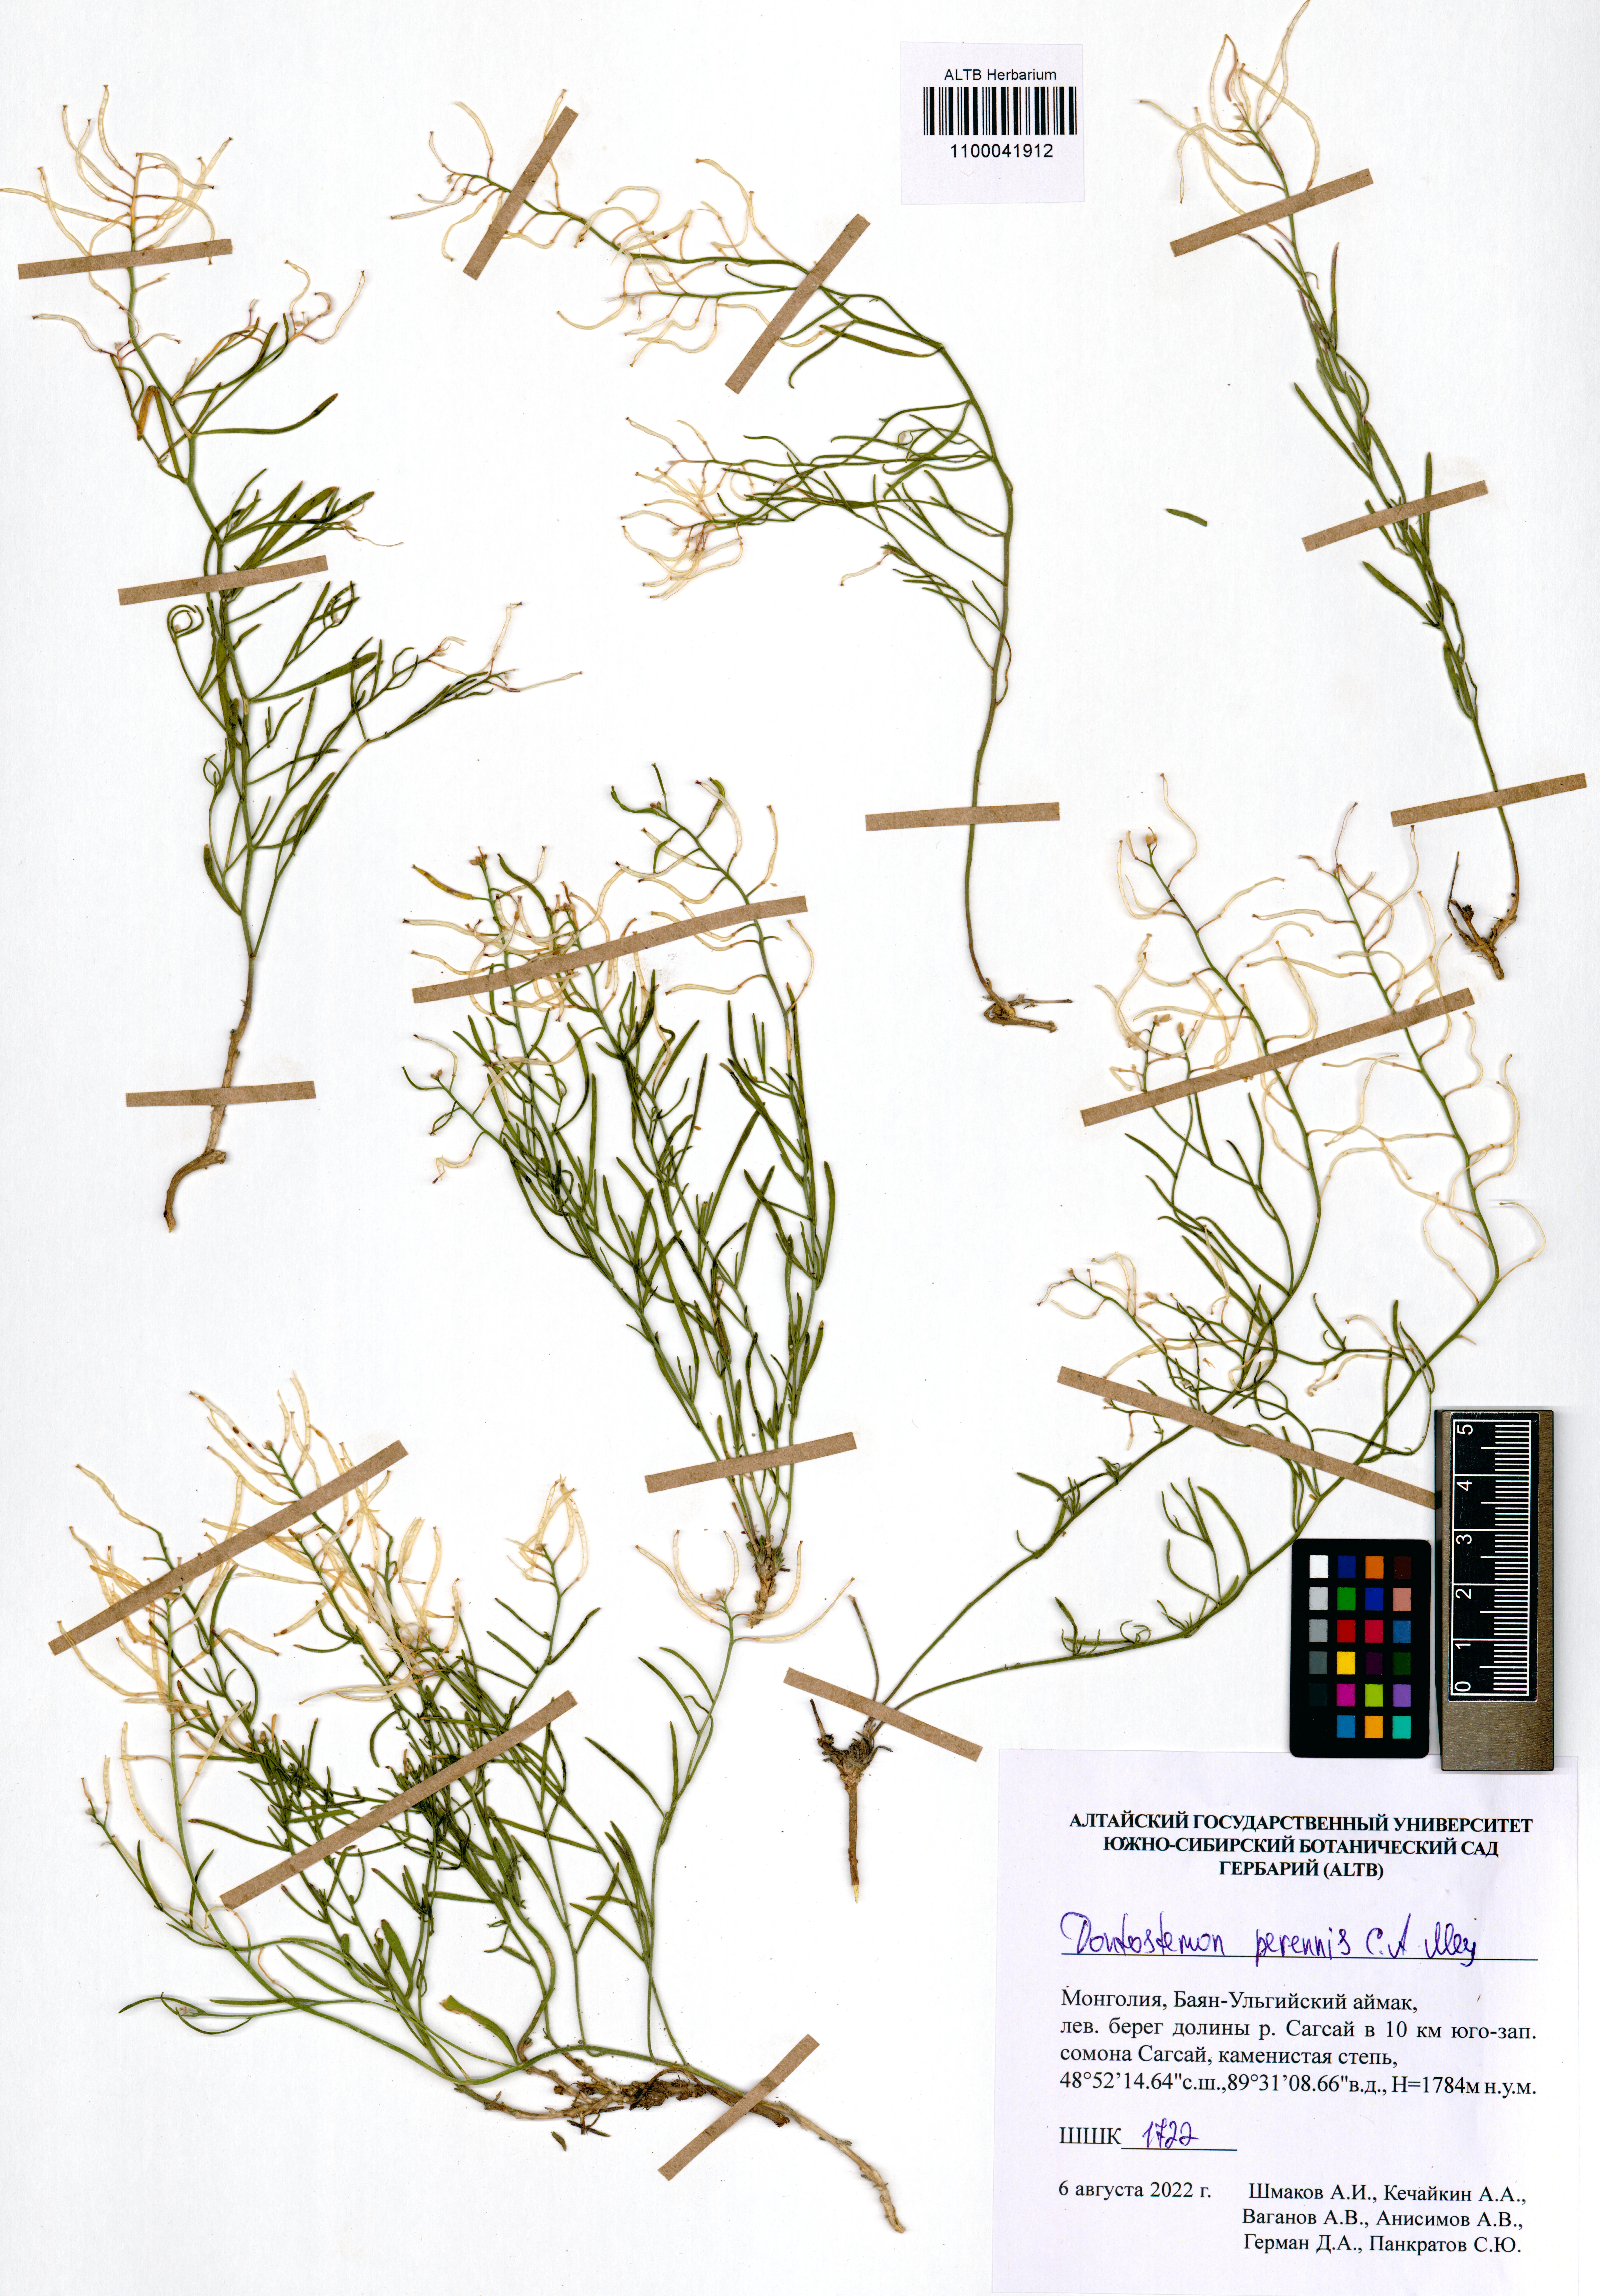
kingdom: Plantae
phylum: Tracheophyta
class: Magnoliopsida
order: Brassicales
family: Brassicaceae
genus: Dontostemon
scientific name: Dontostemon perennis
